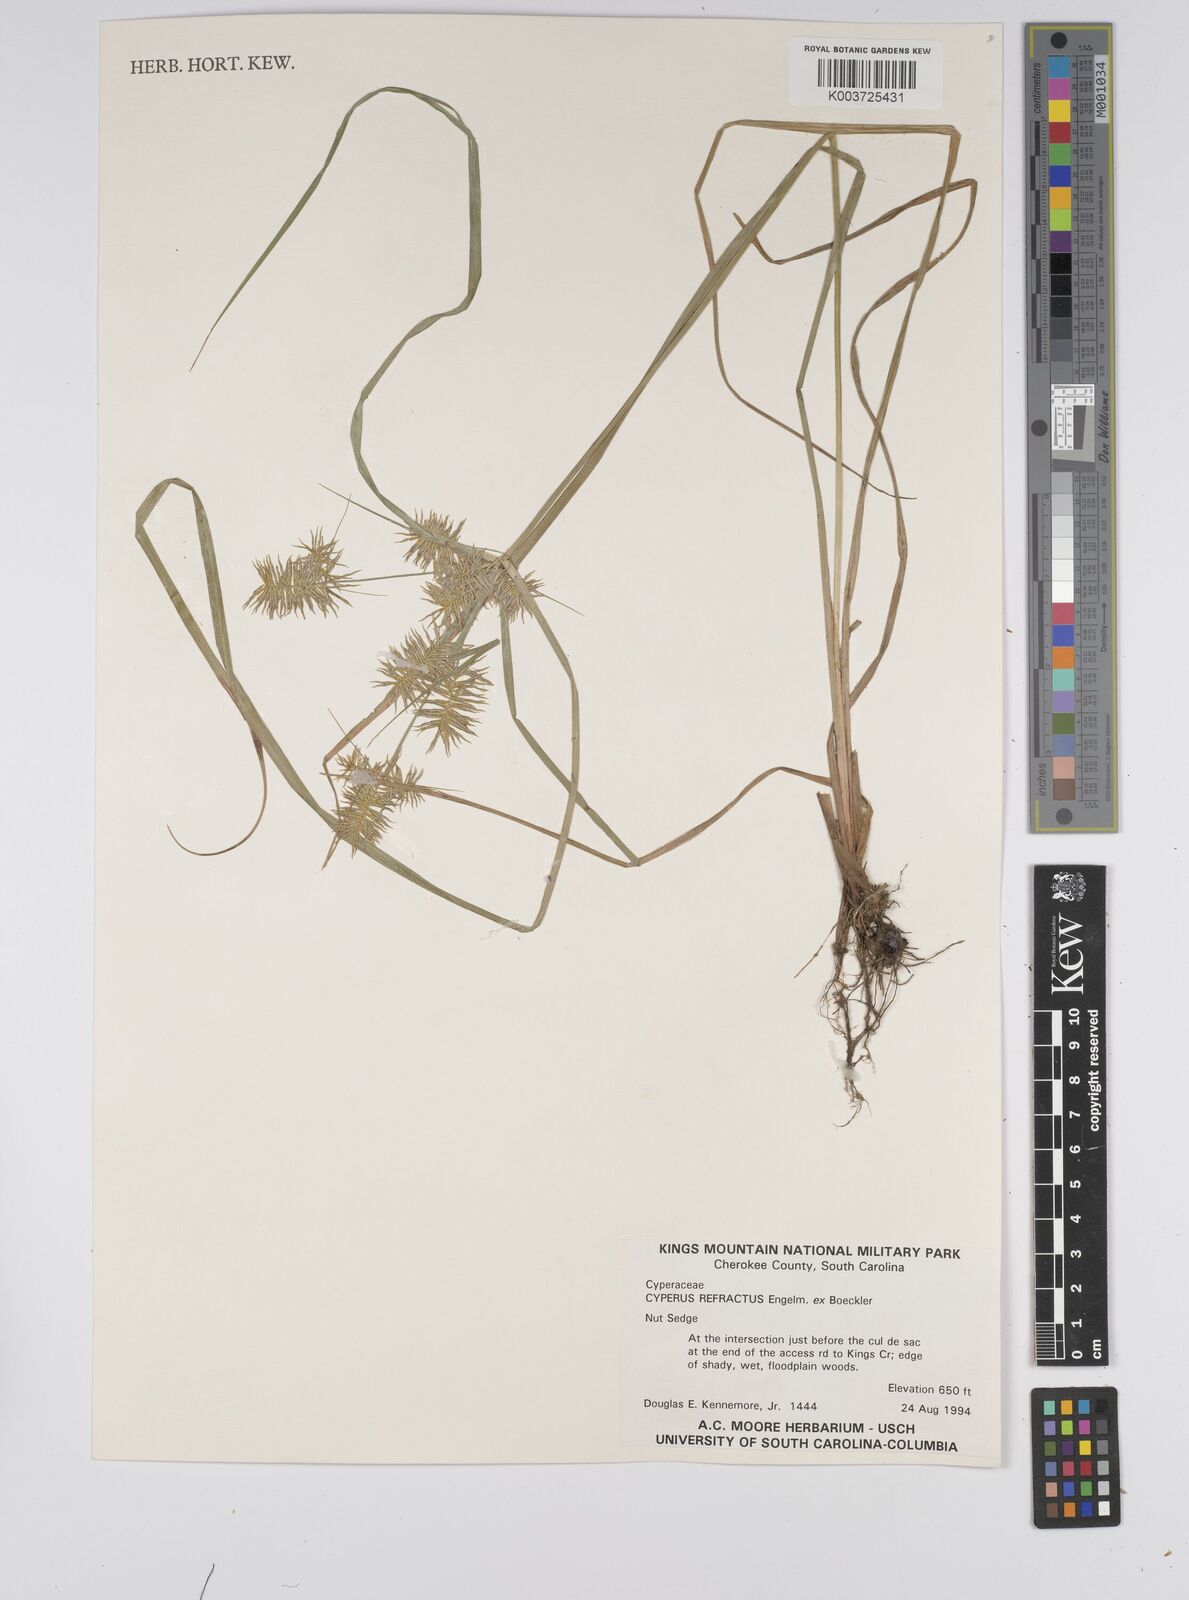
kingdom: Plantae
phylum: Tracheophyta
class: Liliopsida
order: Poales
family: Cyperaceae
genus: Cyperus
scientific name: Cyperus refractus
